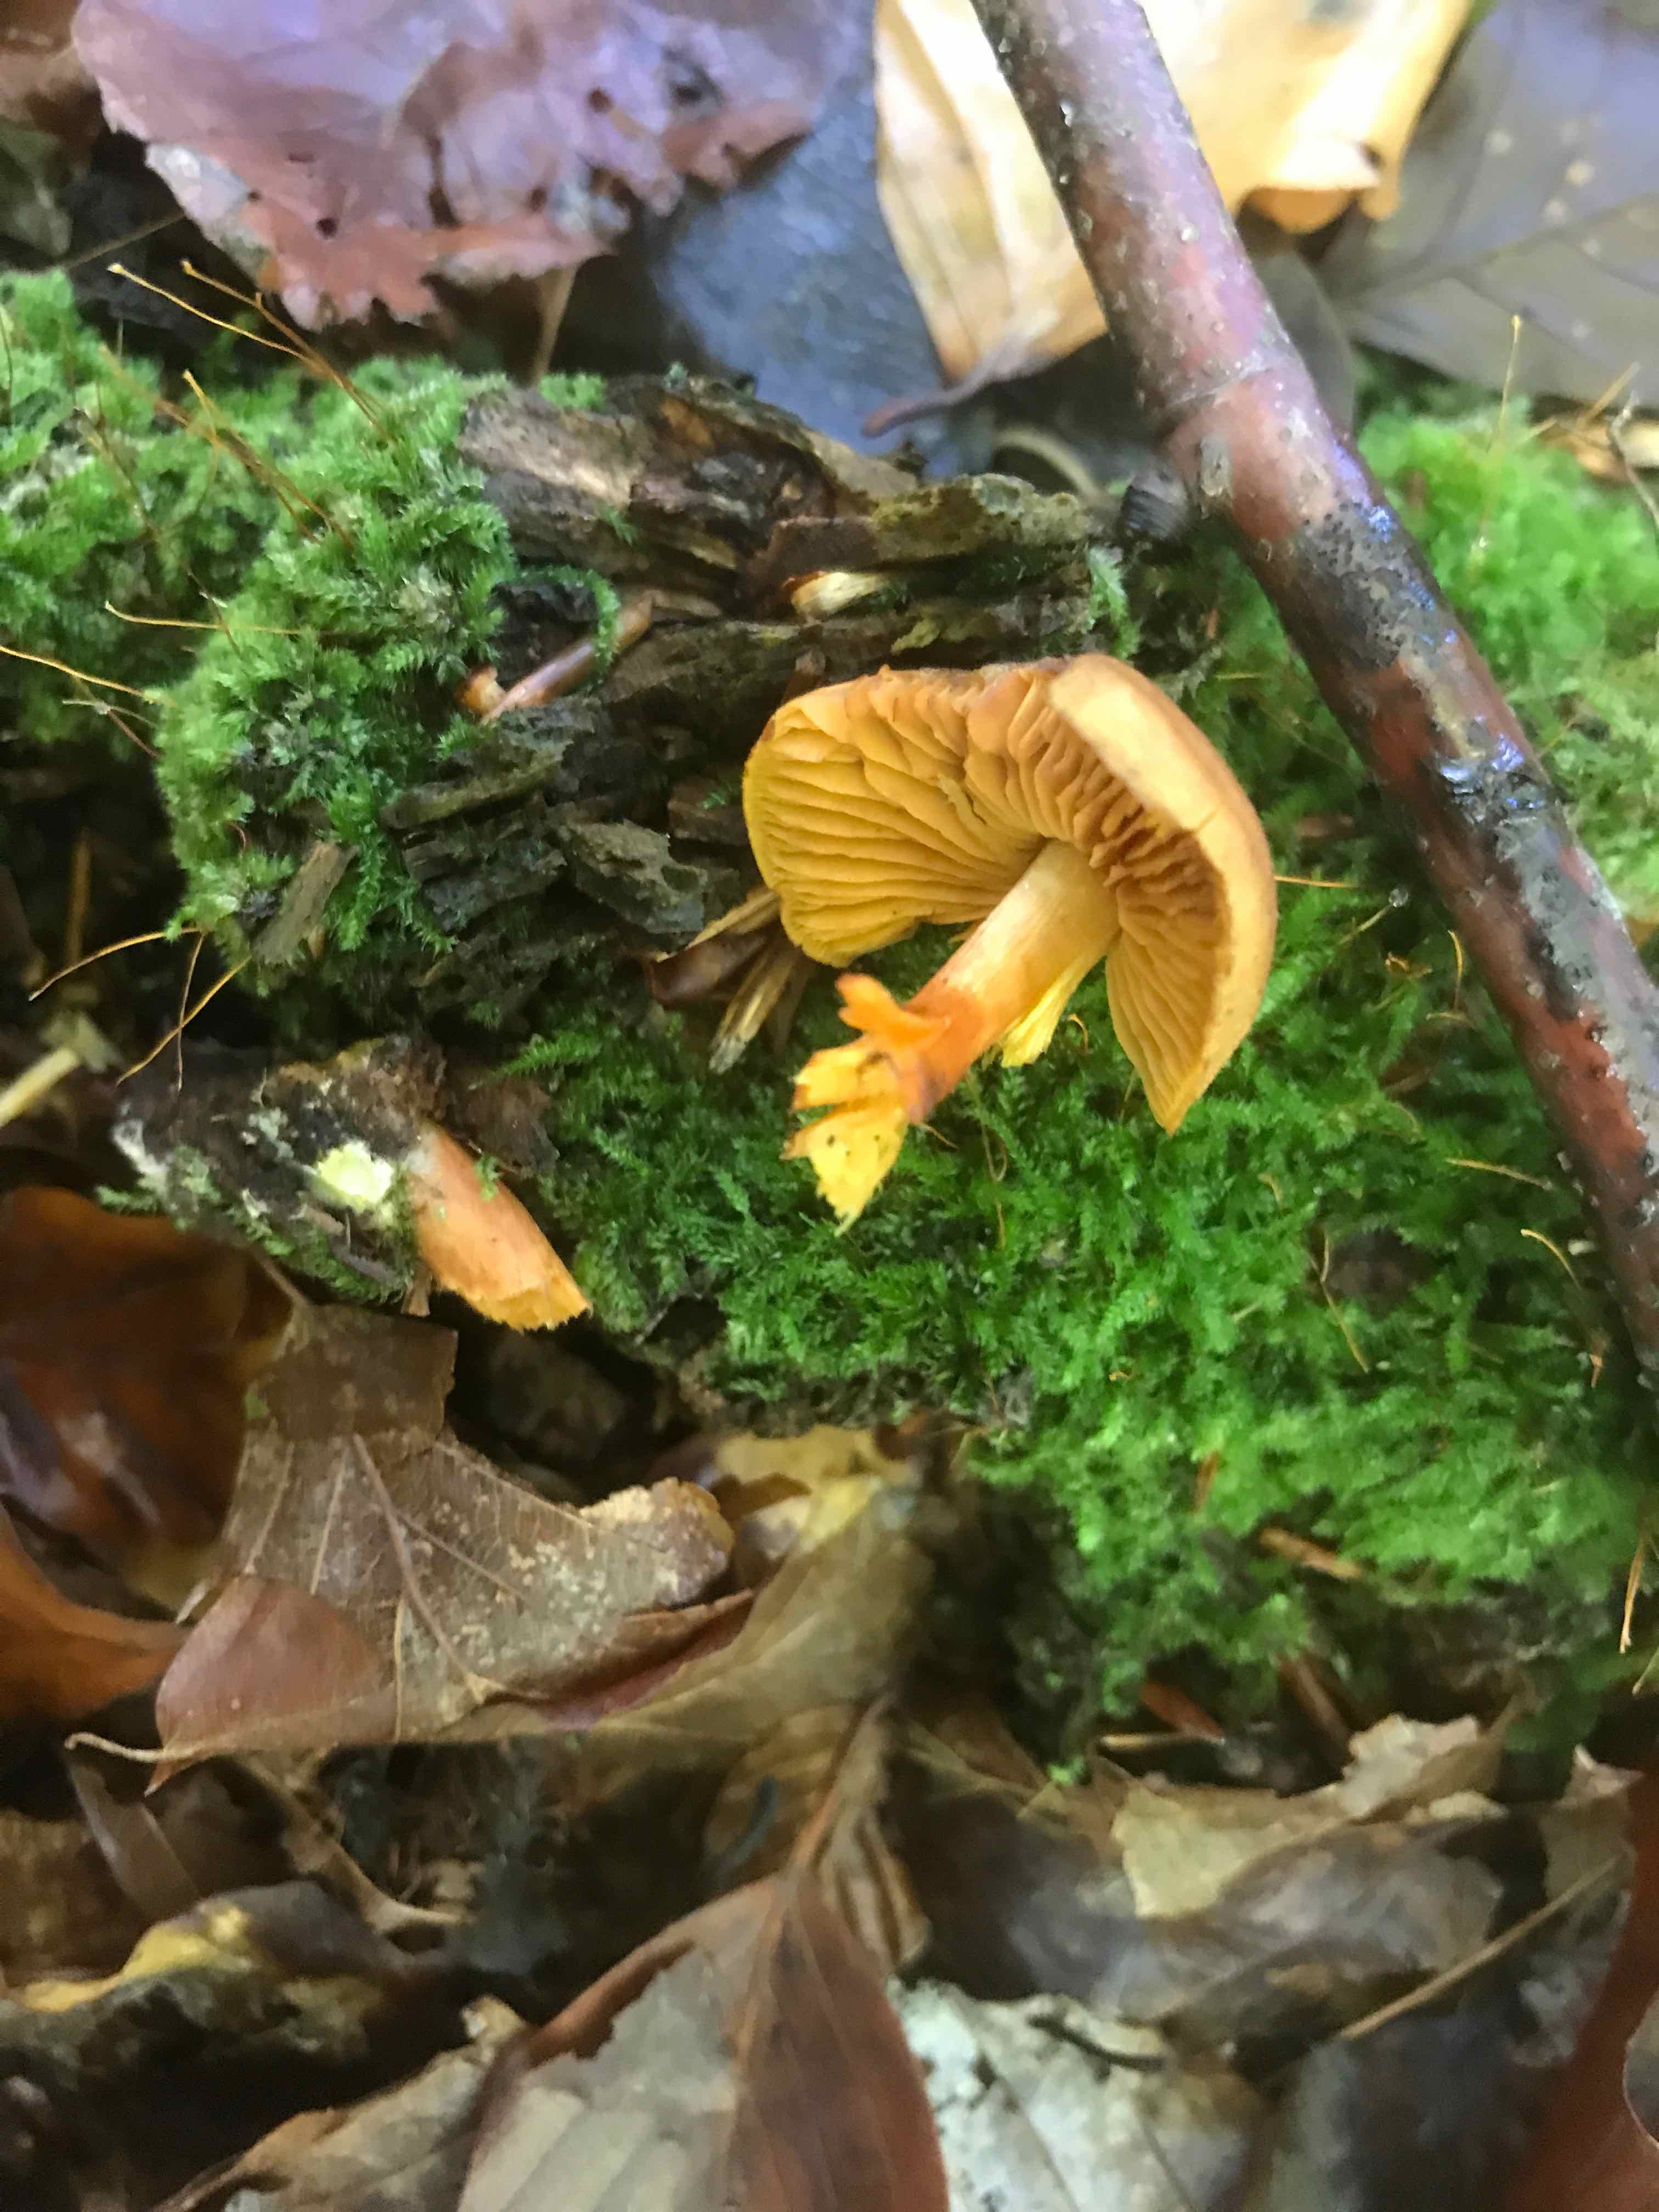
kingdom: Fungi
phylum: Basidiomycota
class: Agaricomycetes
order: Agaricales
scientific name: Agaricales
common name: champignonordenen
